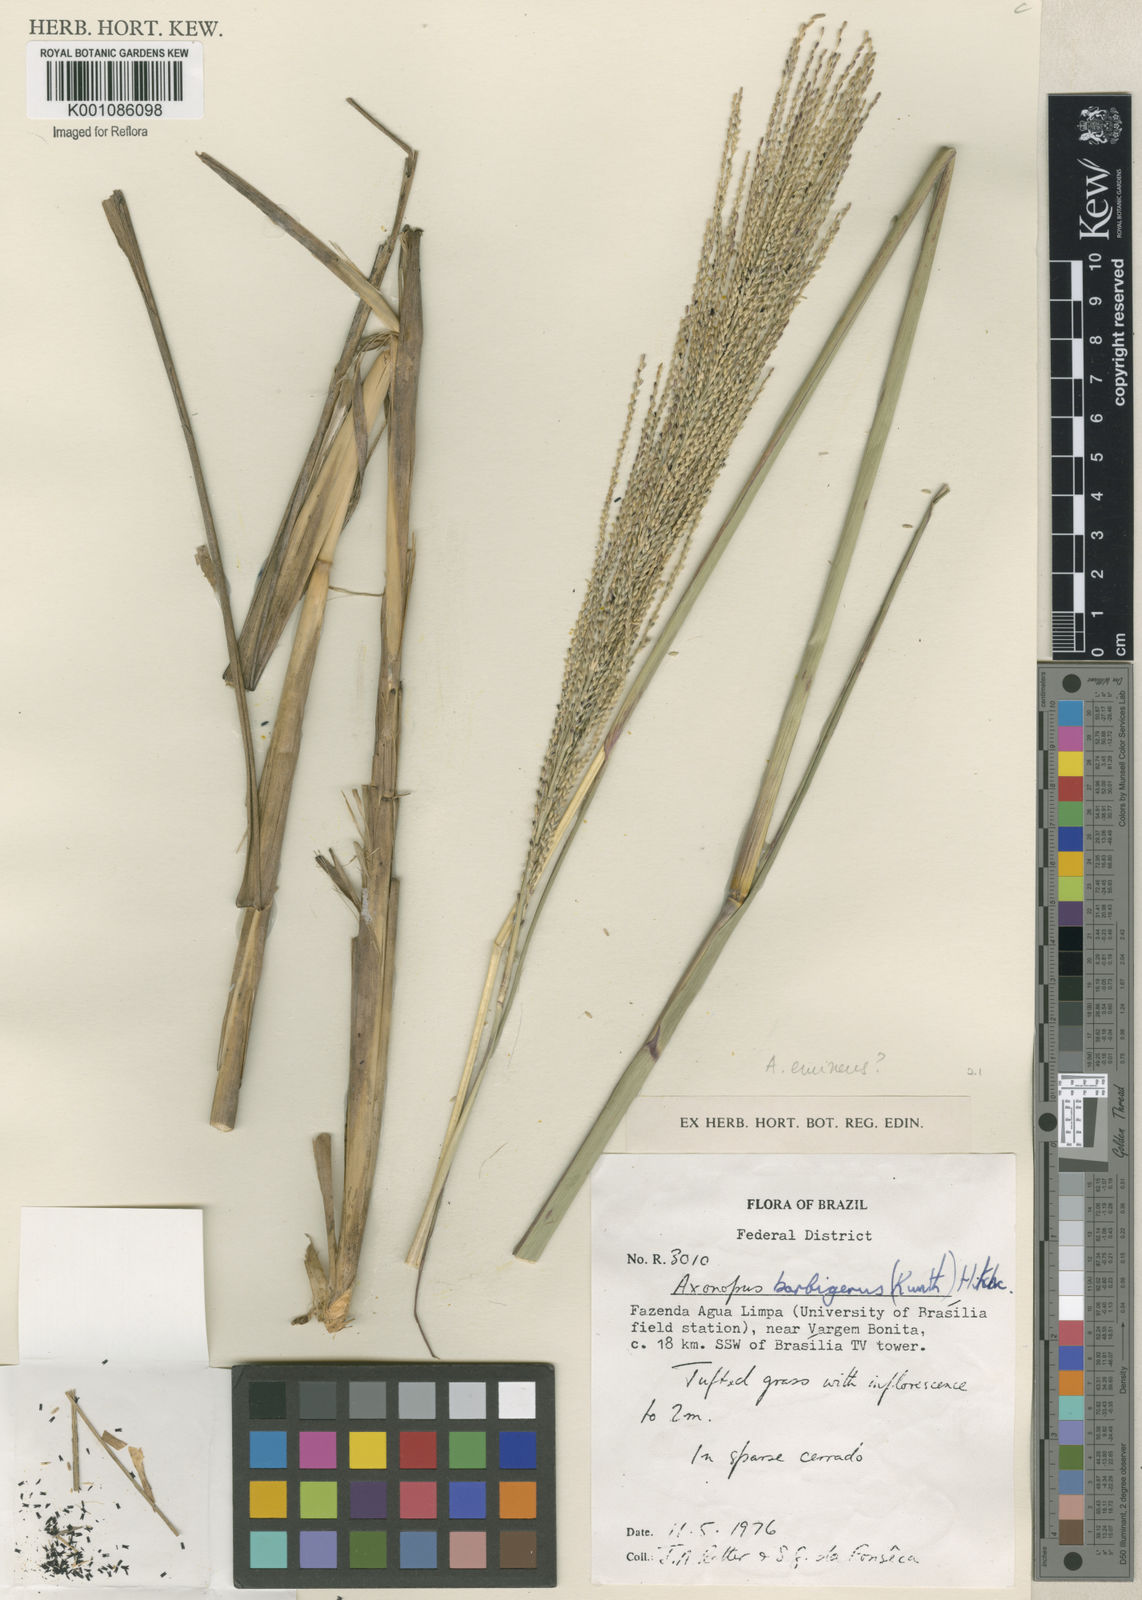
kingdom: Plantae
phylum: Tracheophyta
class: Liliopsida
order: Poales
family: Poaceae
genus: Axonopus
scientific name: Axonopus eminens
